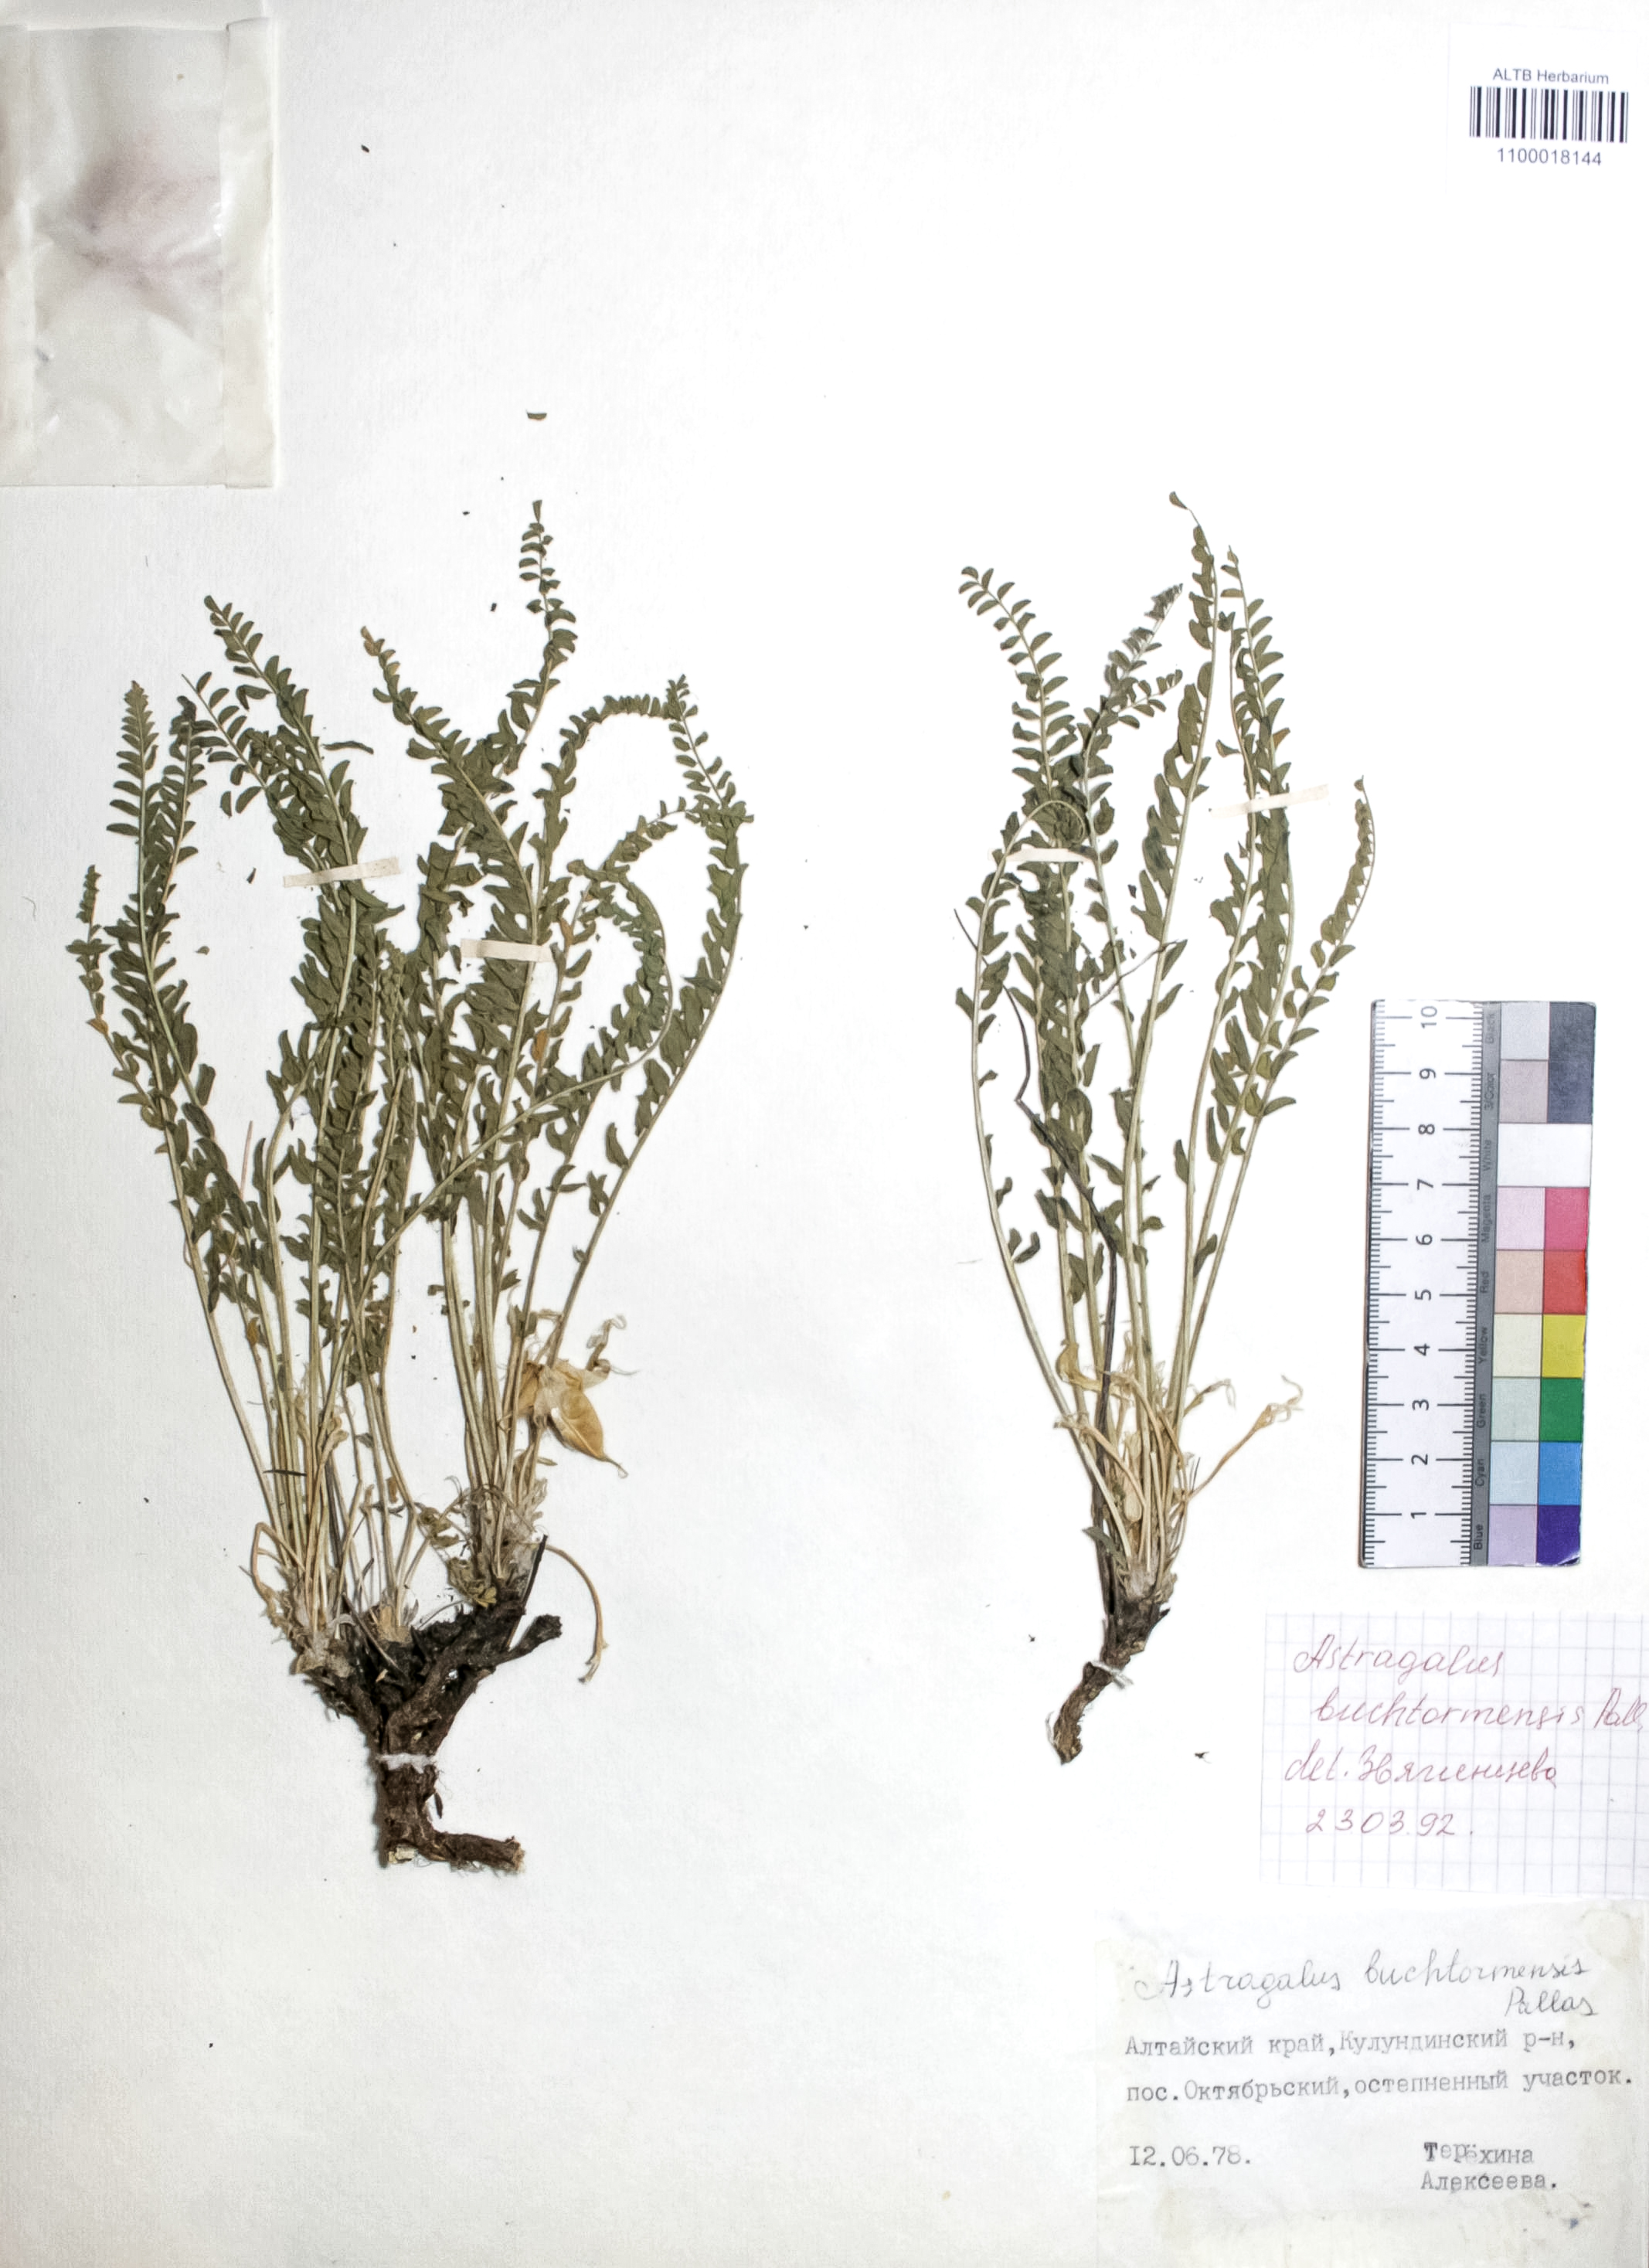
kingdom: Plantae
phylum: Tracheophyta
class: Magnoliopsida
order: Fabales
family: Fabaceae
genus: Astragalus
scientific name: Astragalus buchtormensis
